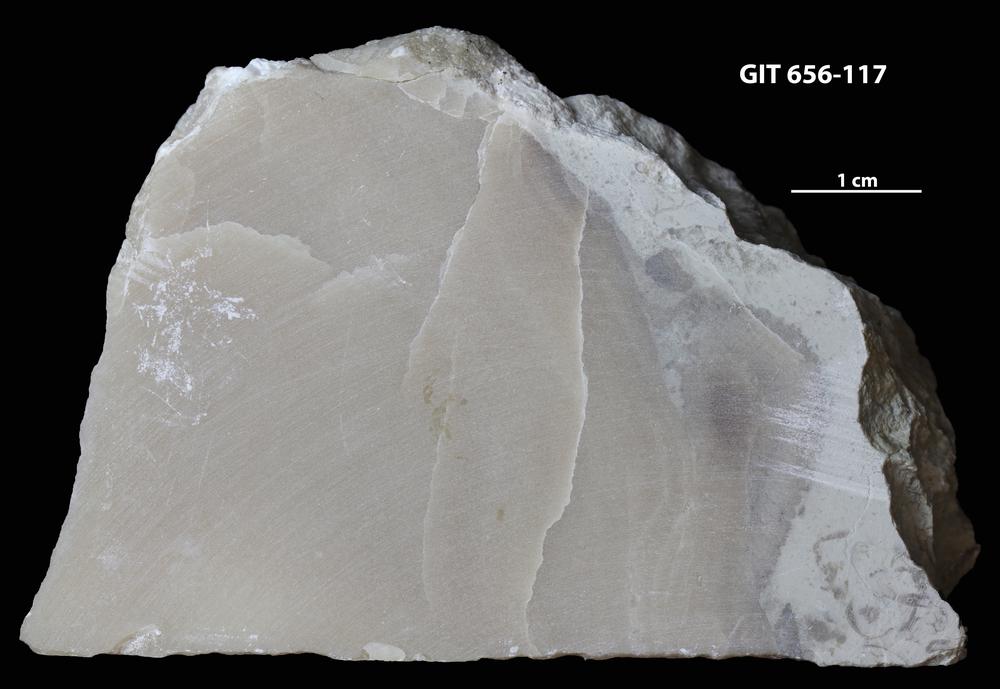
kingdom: Animalia
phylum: Porifera
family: Stromatoporidae
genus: Stromatopora
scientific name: Stromatopora
